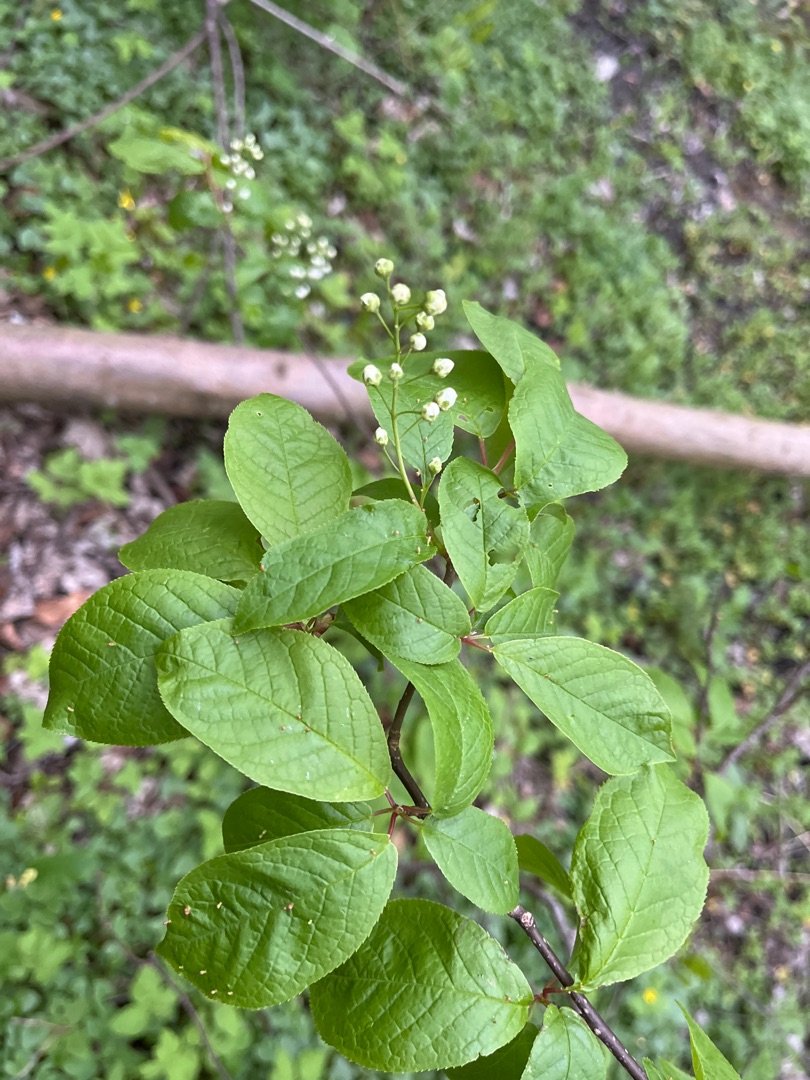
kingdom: Plantae
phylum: Tracheophyta
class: Magnoliopsida
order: Rosales
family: Rosaceae
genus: Prunus
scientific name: Prunus padus
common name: Almindelig hæg
